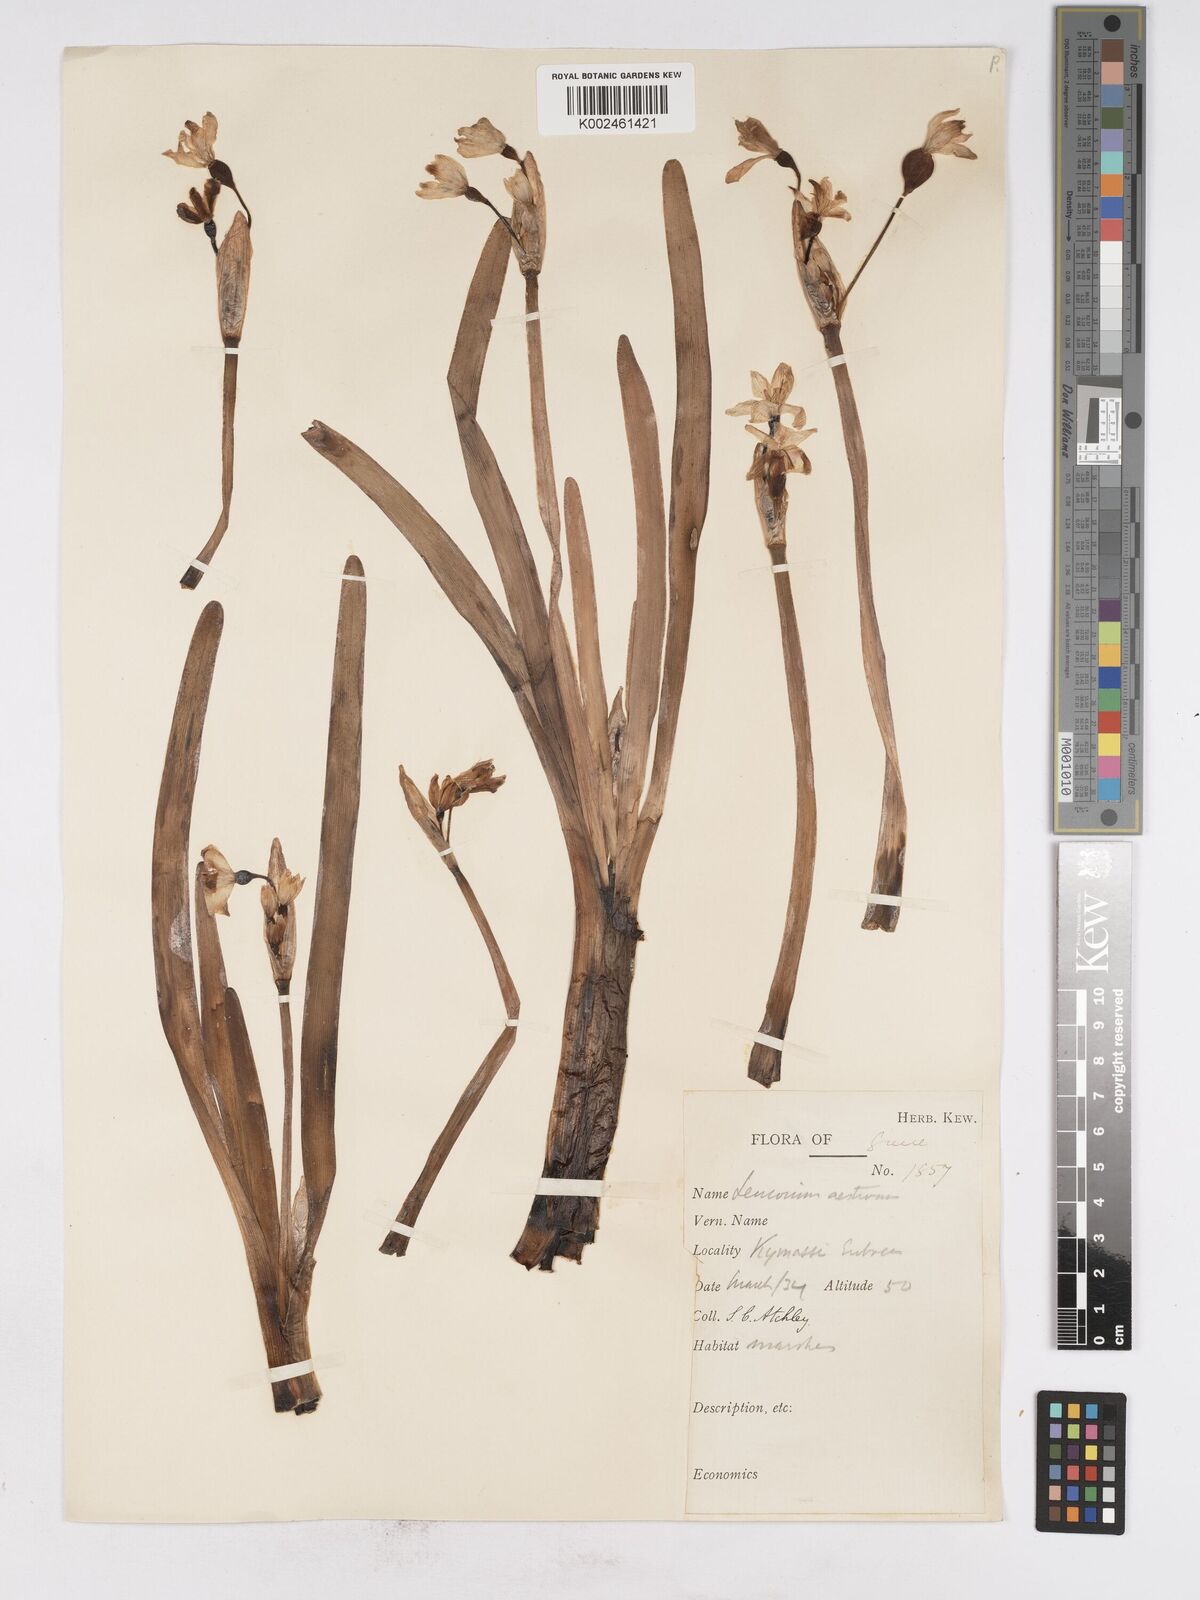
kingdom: Plantae
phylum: Tracheophyta
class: Liliopsida
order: Asparagales
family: Amaryllidaceae
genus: Leucojum
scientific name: Leucojum aestivum
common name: Summer snowflake
